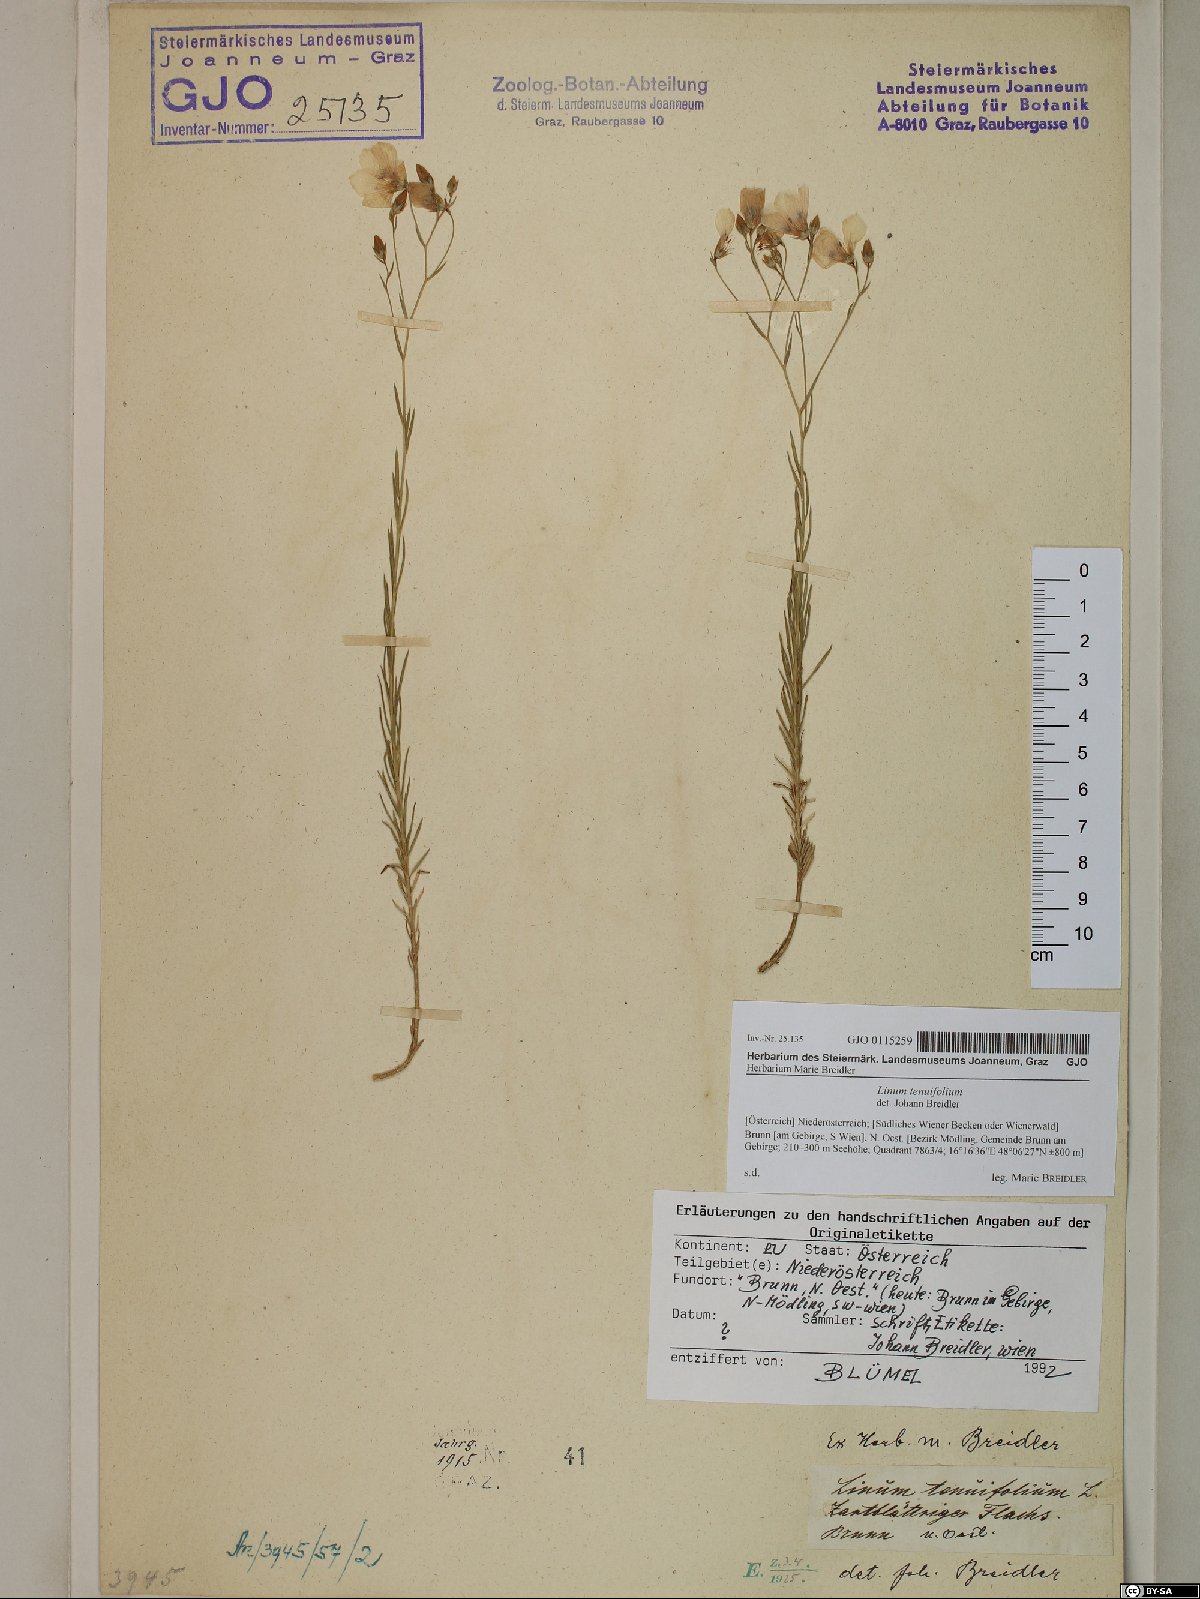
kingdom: Plantae
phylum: Tracheophyta
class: Magnoliopsida
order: Malpighiales
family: Linaceae
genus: Linum
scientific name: Linum tenuifolium
